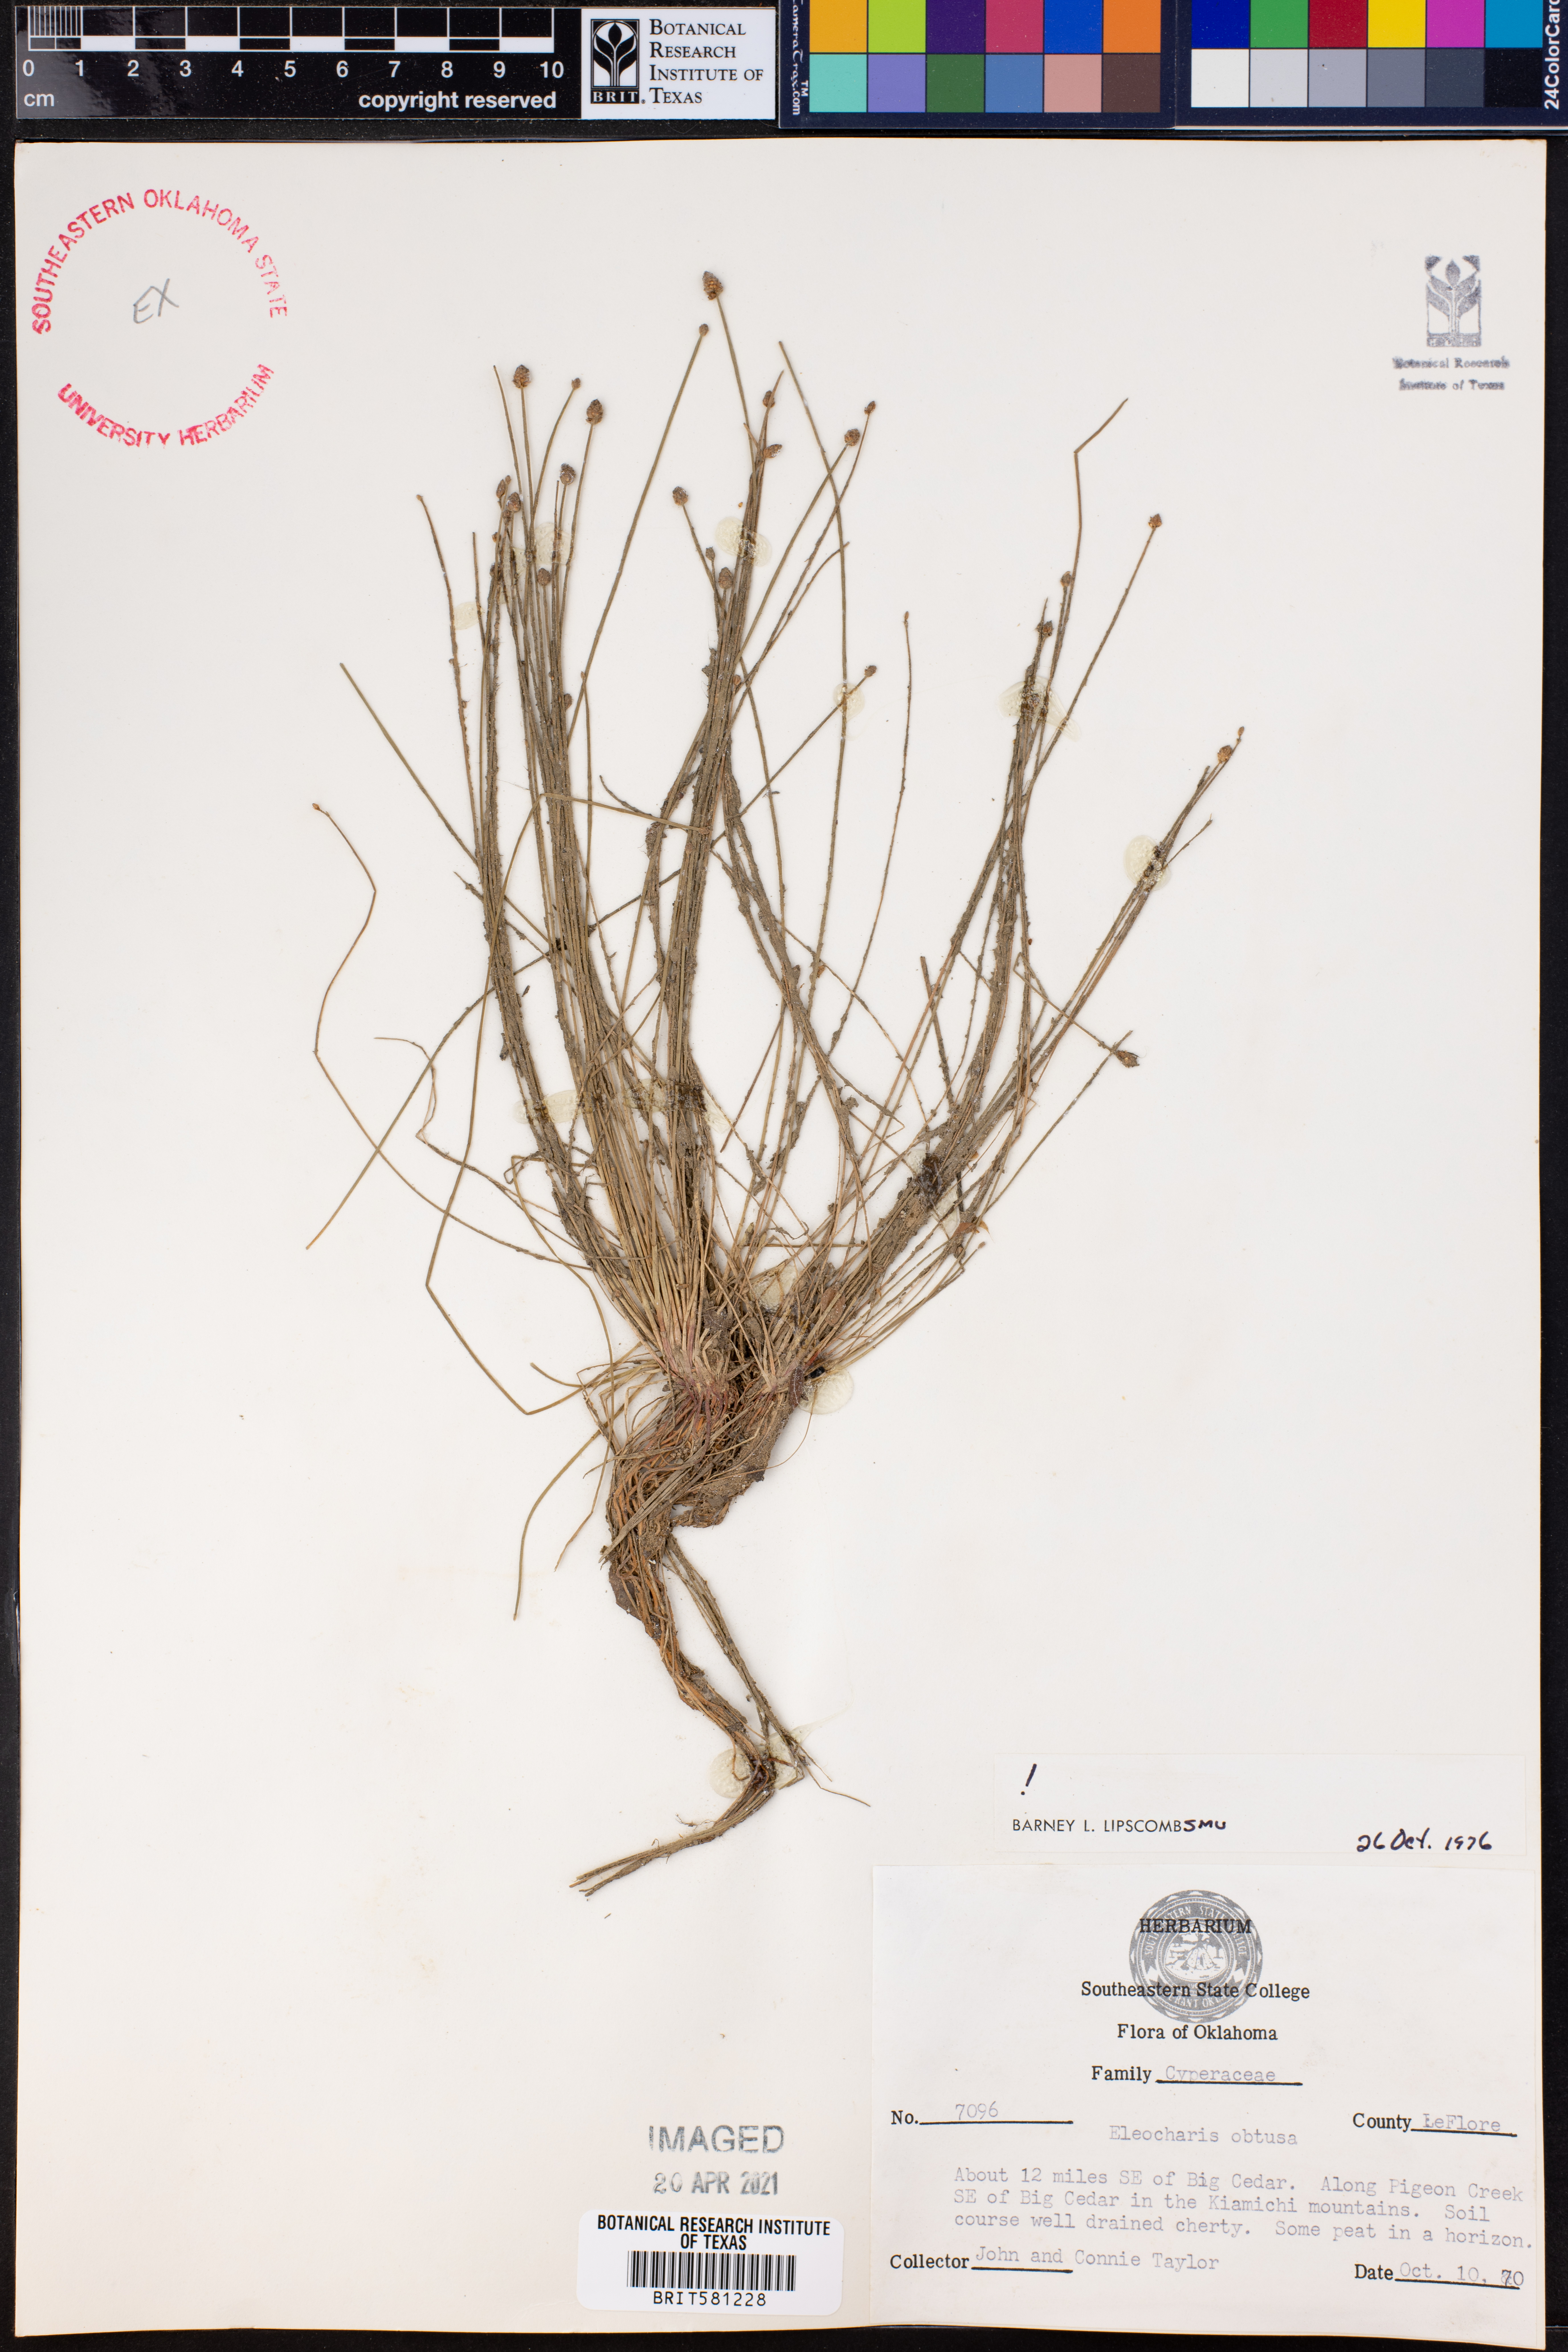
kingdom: Plantae
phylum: Tracheophyta
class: Liliopsida
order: Poales
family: Cyperaceae
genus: Eleocharis
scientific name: Eleocharis obtusa
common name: Blunt spikerush
